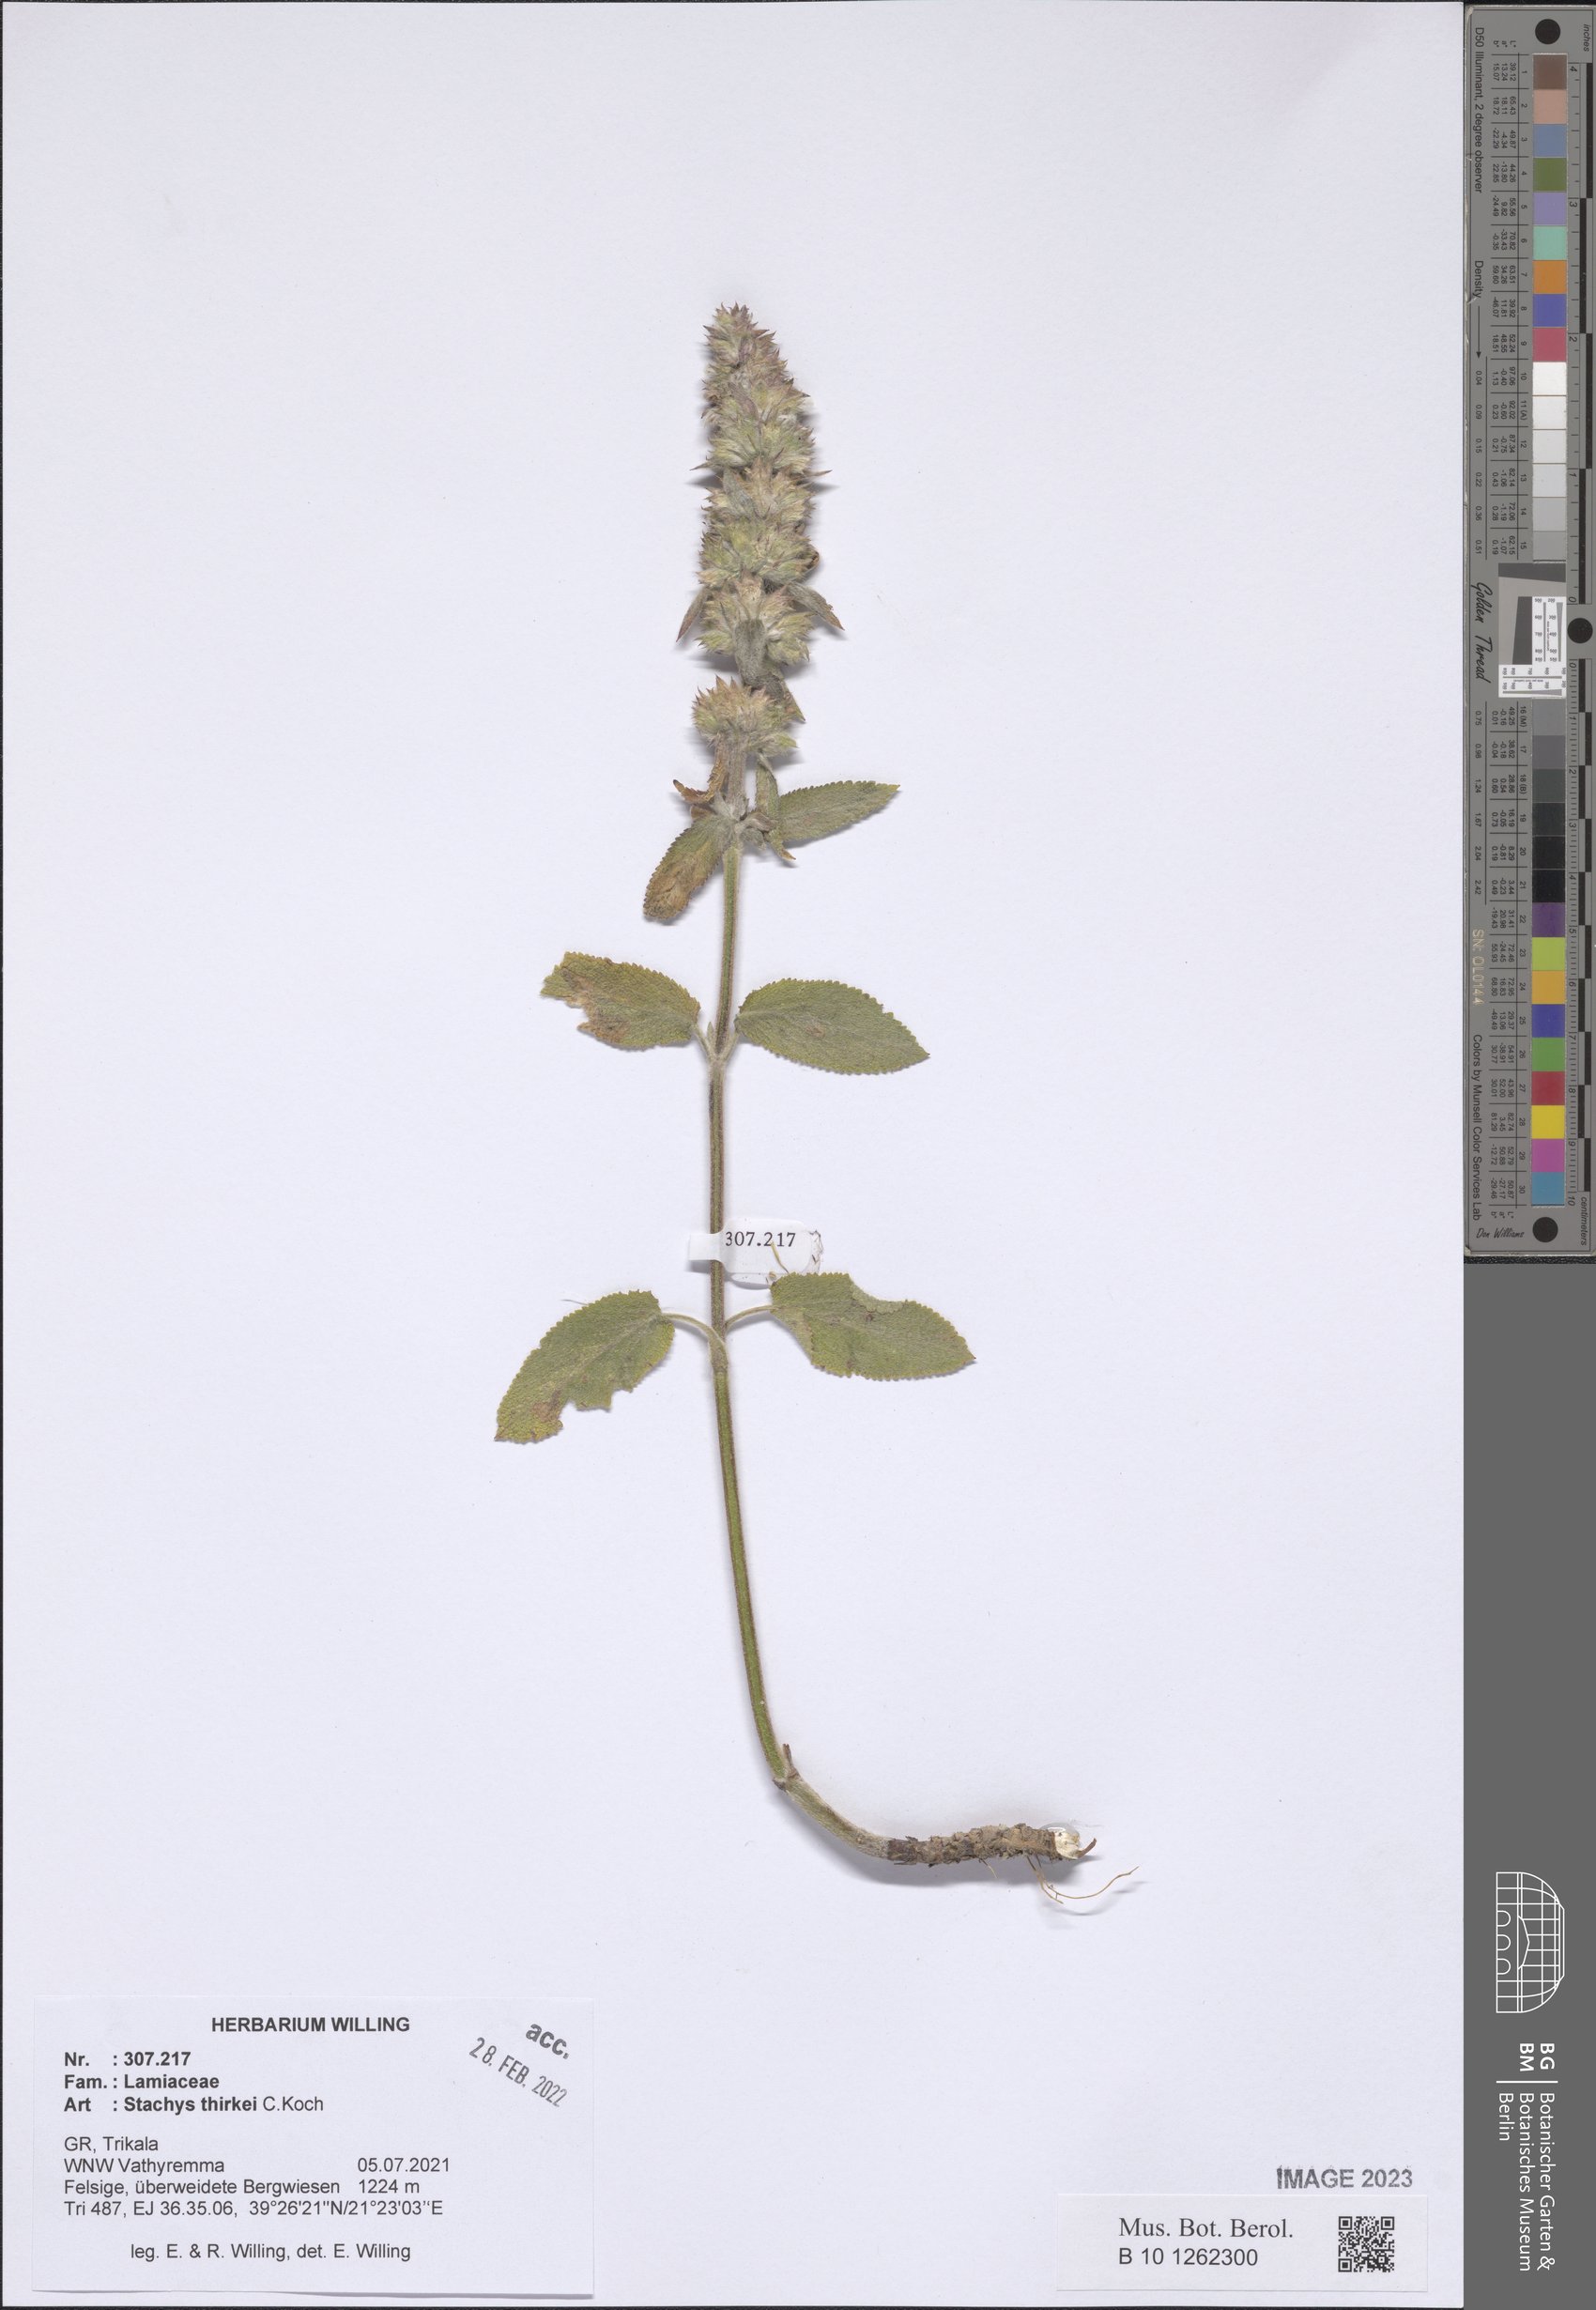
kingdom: Plantae
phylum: Tracheophyta
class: Magnoliopsida
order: Lamiales
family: Lamiaceae
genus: Stachys
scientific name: Stachys thirkei
